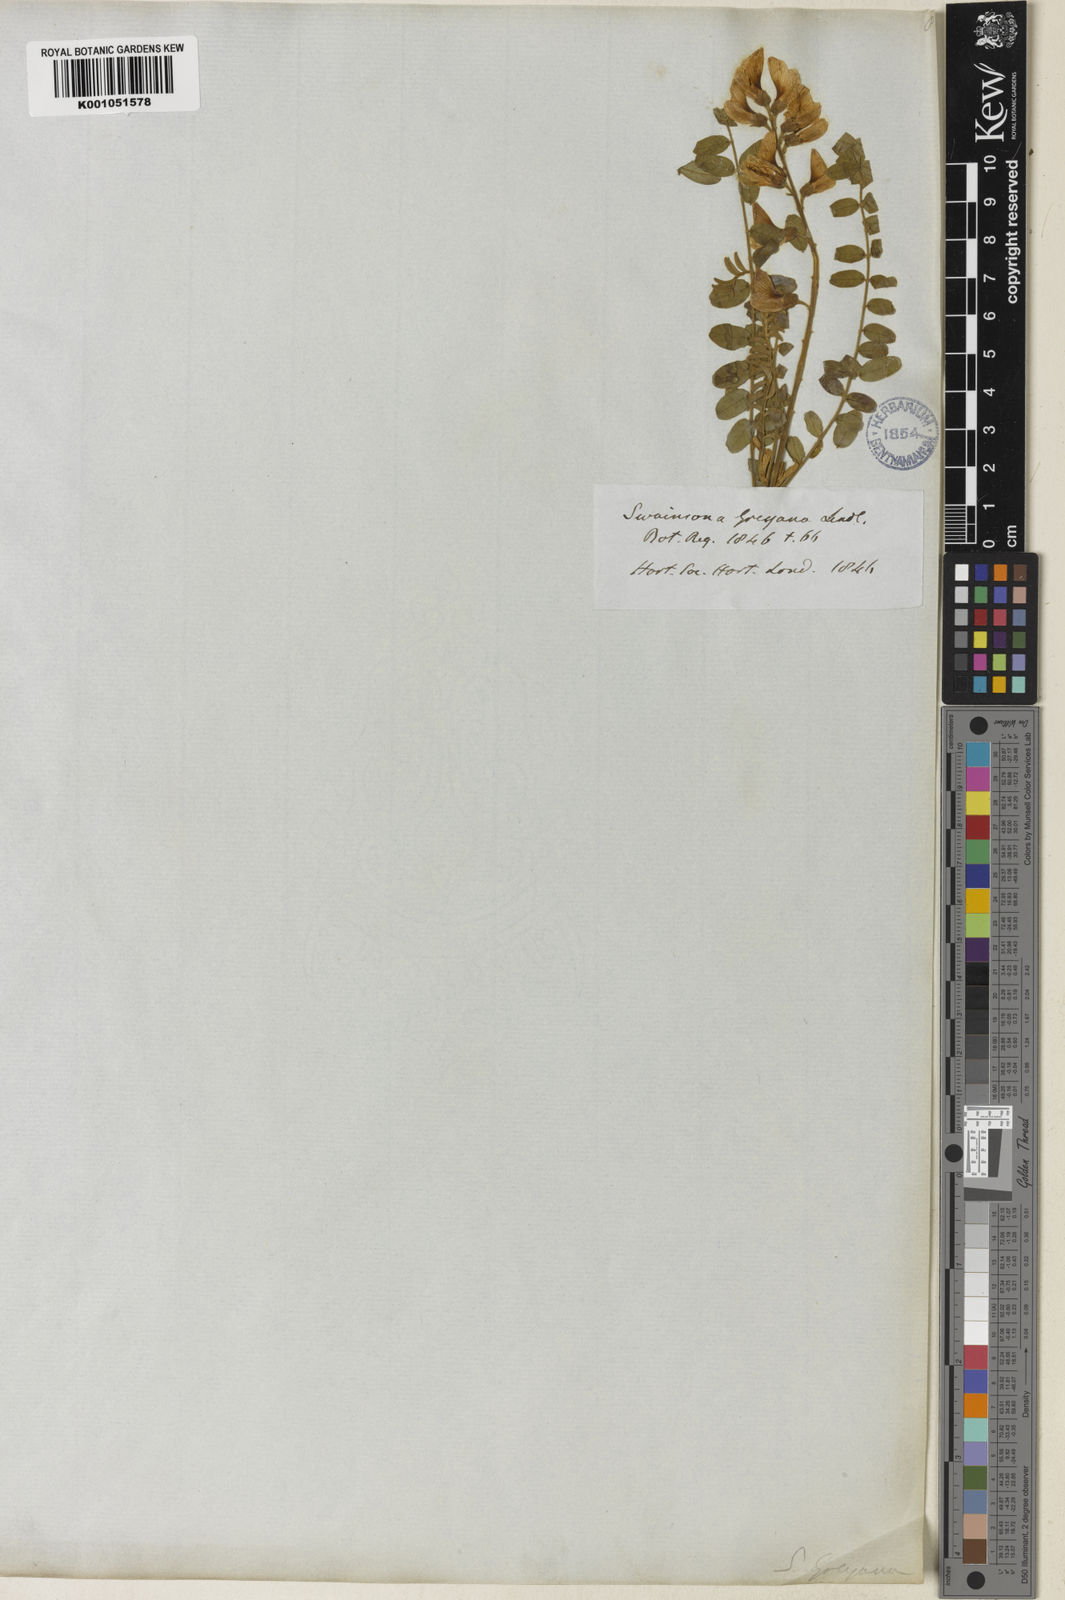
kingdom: Plantae
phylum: Tracheophyta
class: Magnoliopsida
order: Fabales
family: Fabaceae
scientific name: Fabaceae
